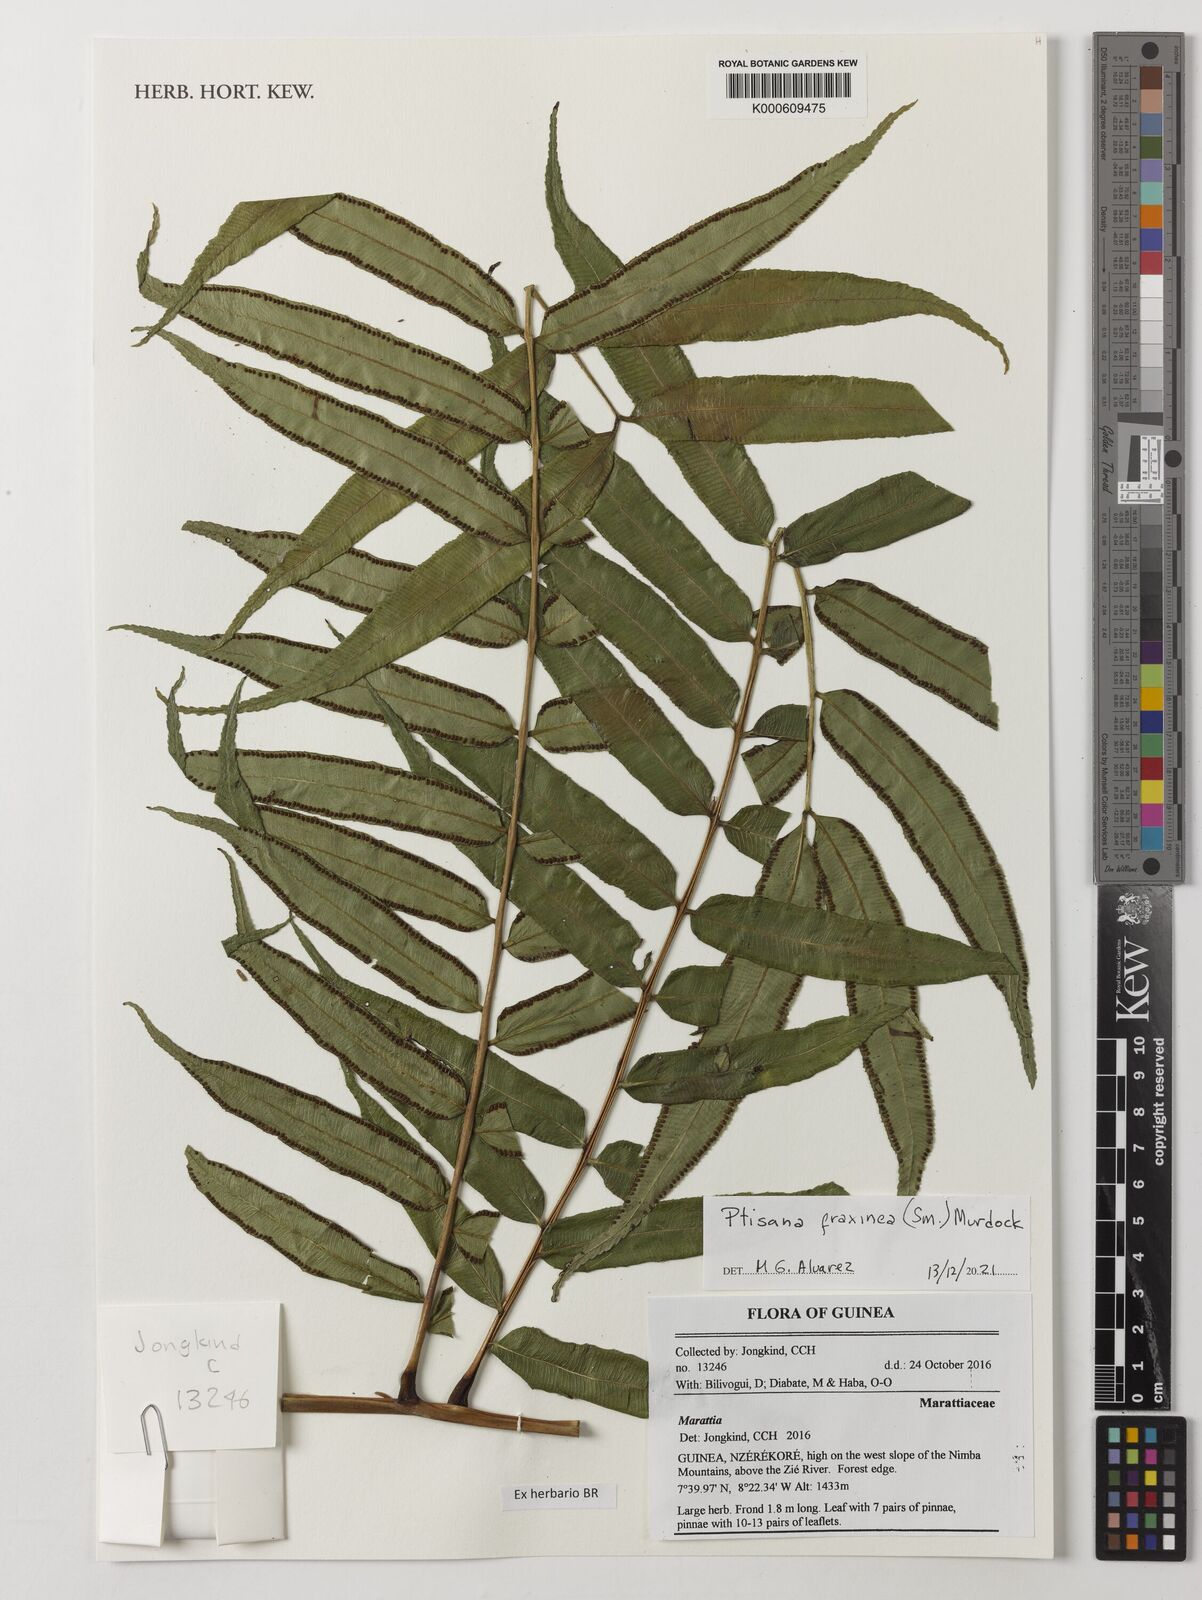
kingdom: Plantae
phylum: Tracheophyta
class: Polypodiopsida
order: Marattiales
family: Marattiaceae
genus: Ptisana
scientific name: Ptisana fraxinea
